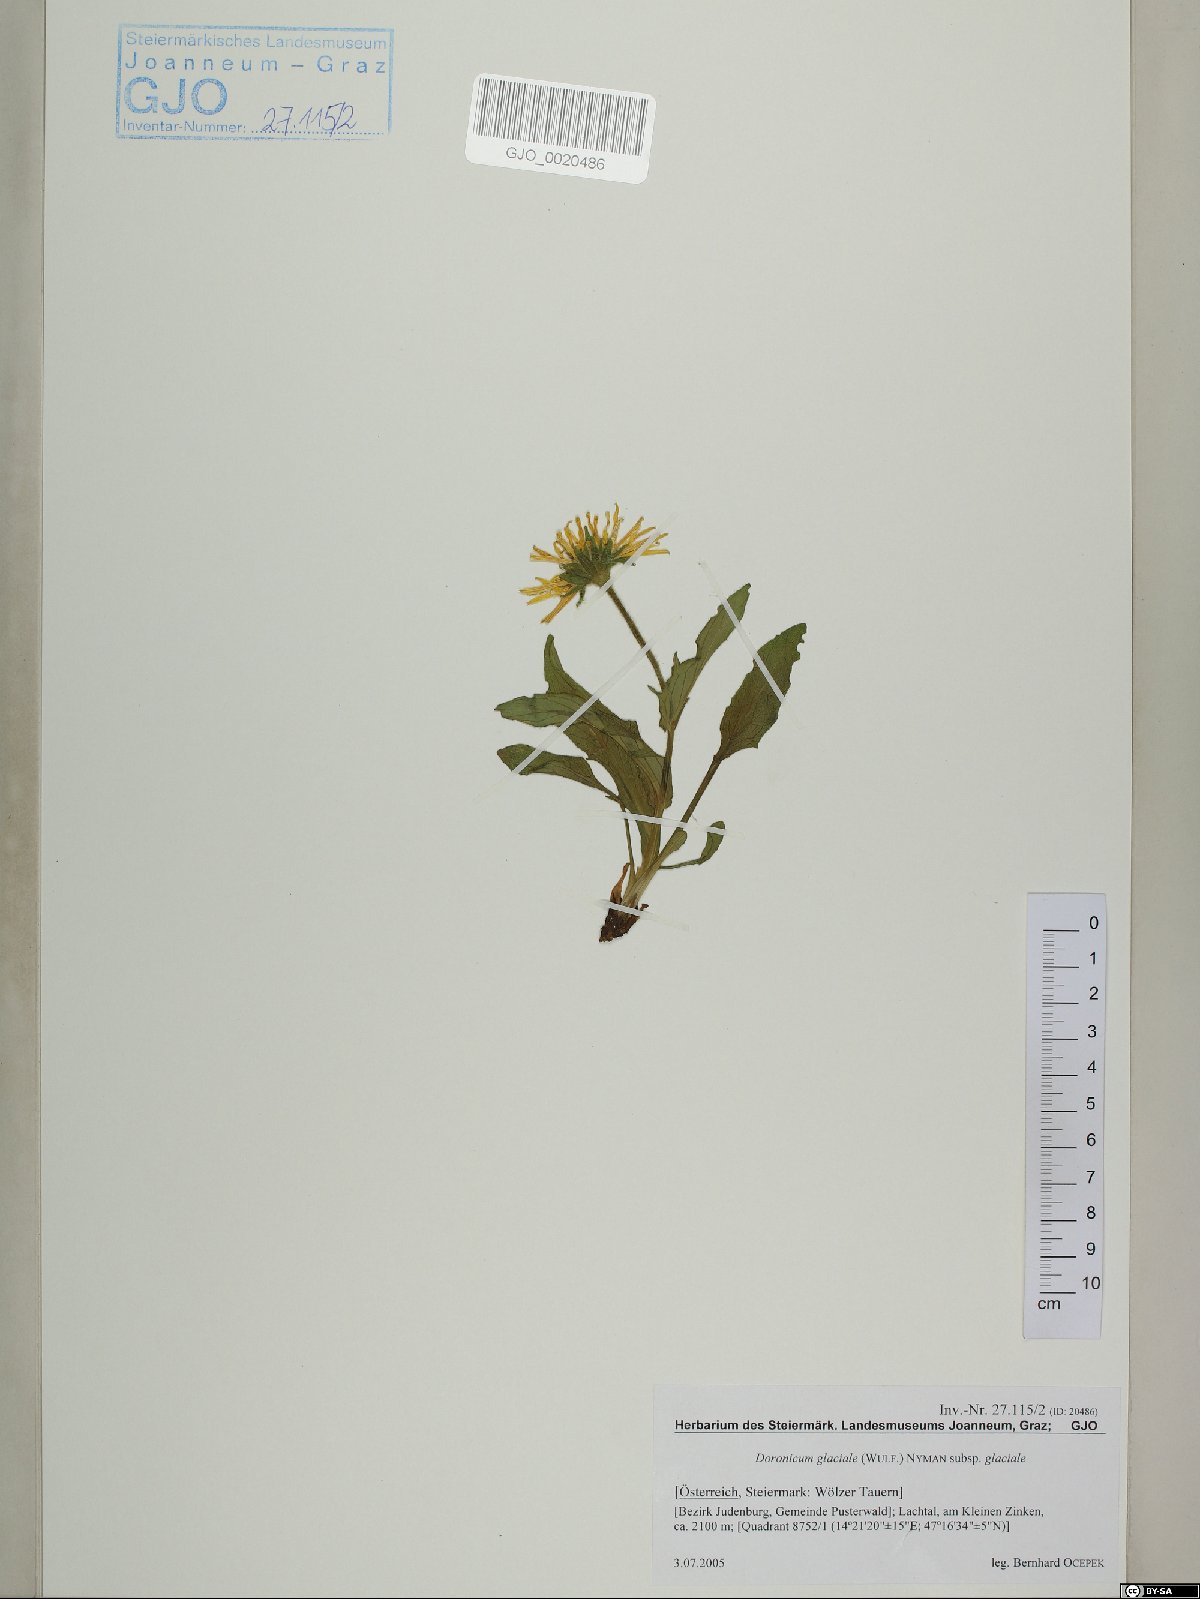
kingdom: Plantae
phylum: Tracheophyta
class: Magnoliopsida
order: Asterales
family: Asteraceae
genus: Doronicum
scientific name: Doronicum glaciale
